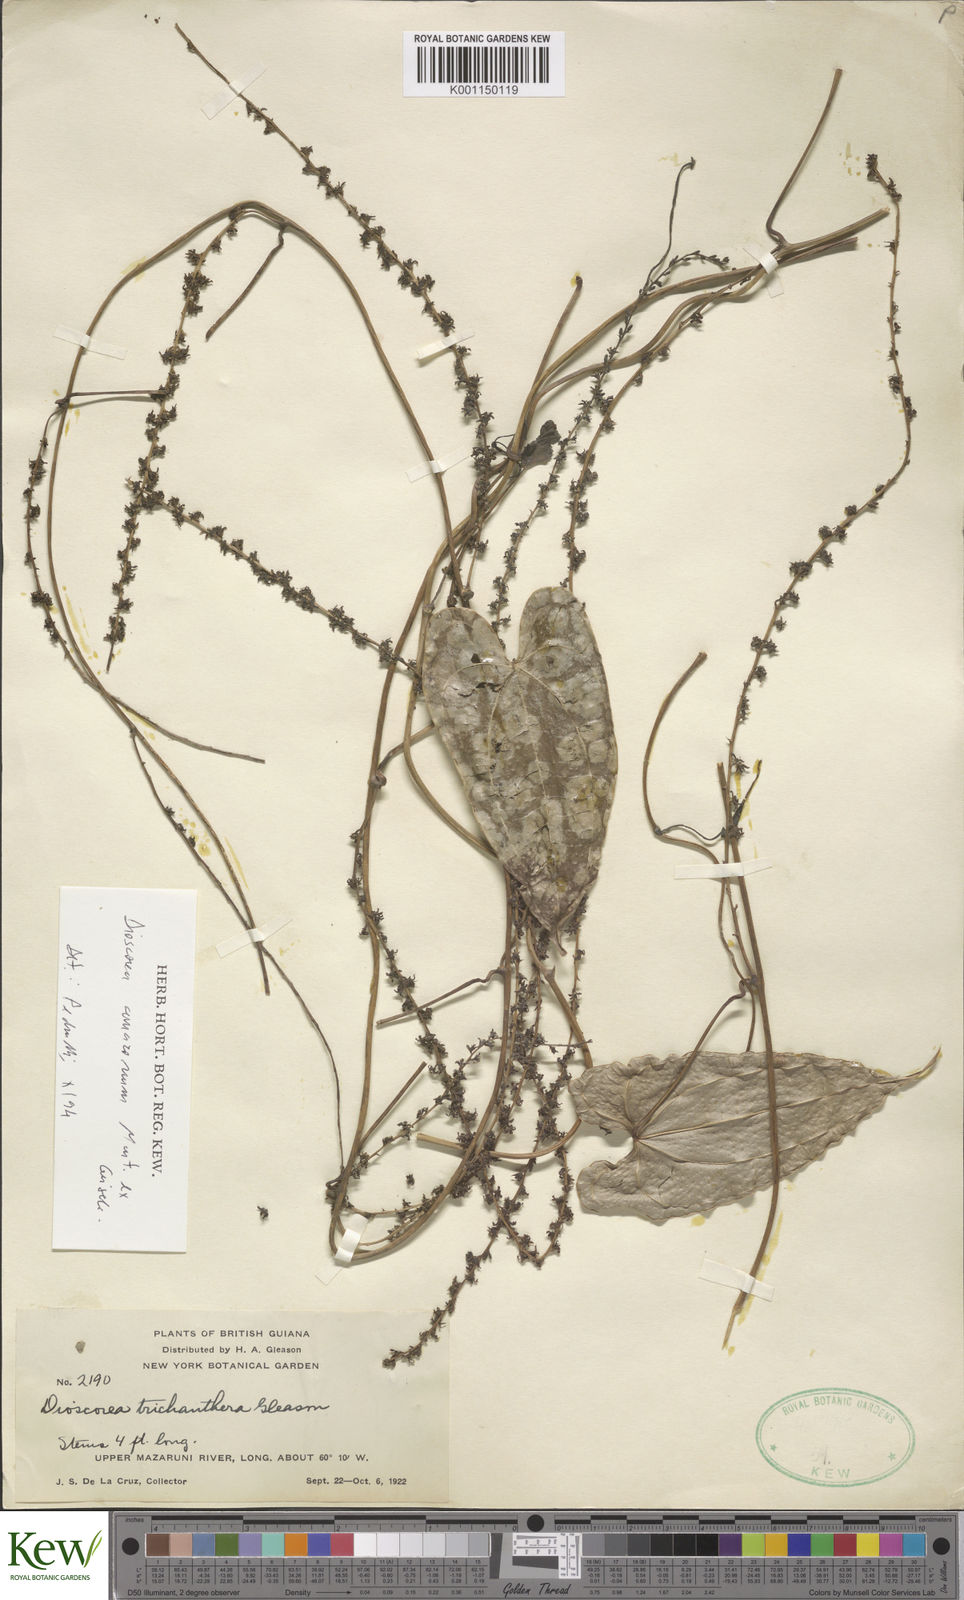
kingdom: Plantae
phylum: Tracheophyta
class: Liliopsida
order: Dioscoreales
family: Dioscoreaceae
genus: Dioscorea
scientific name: Dioscorea trichanthera
